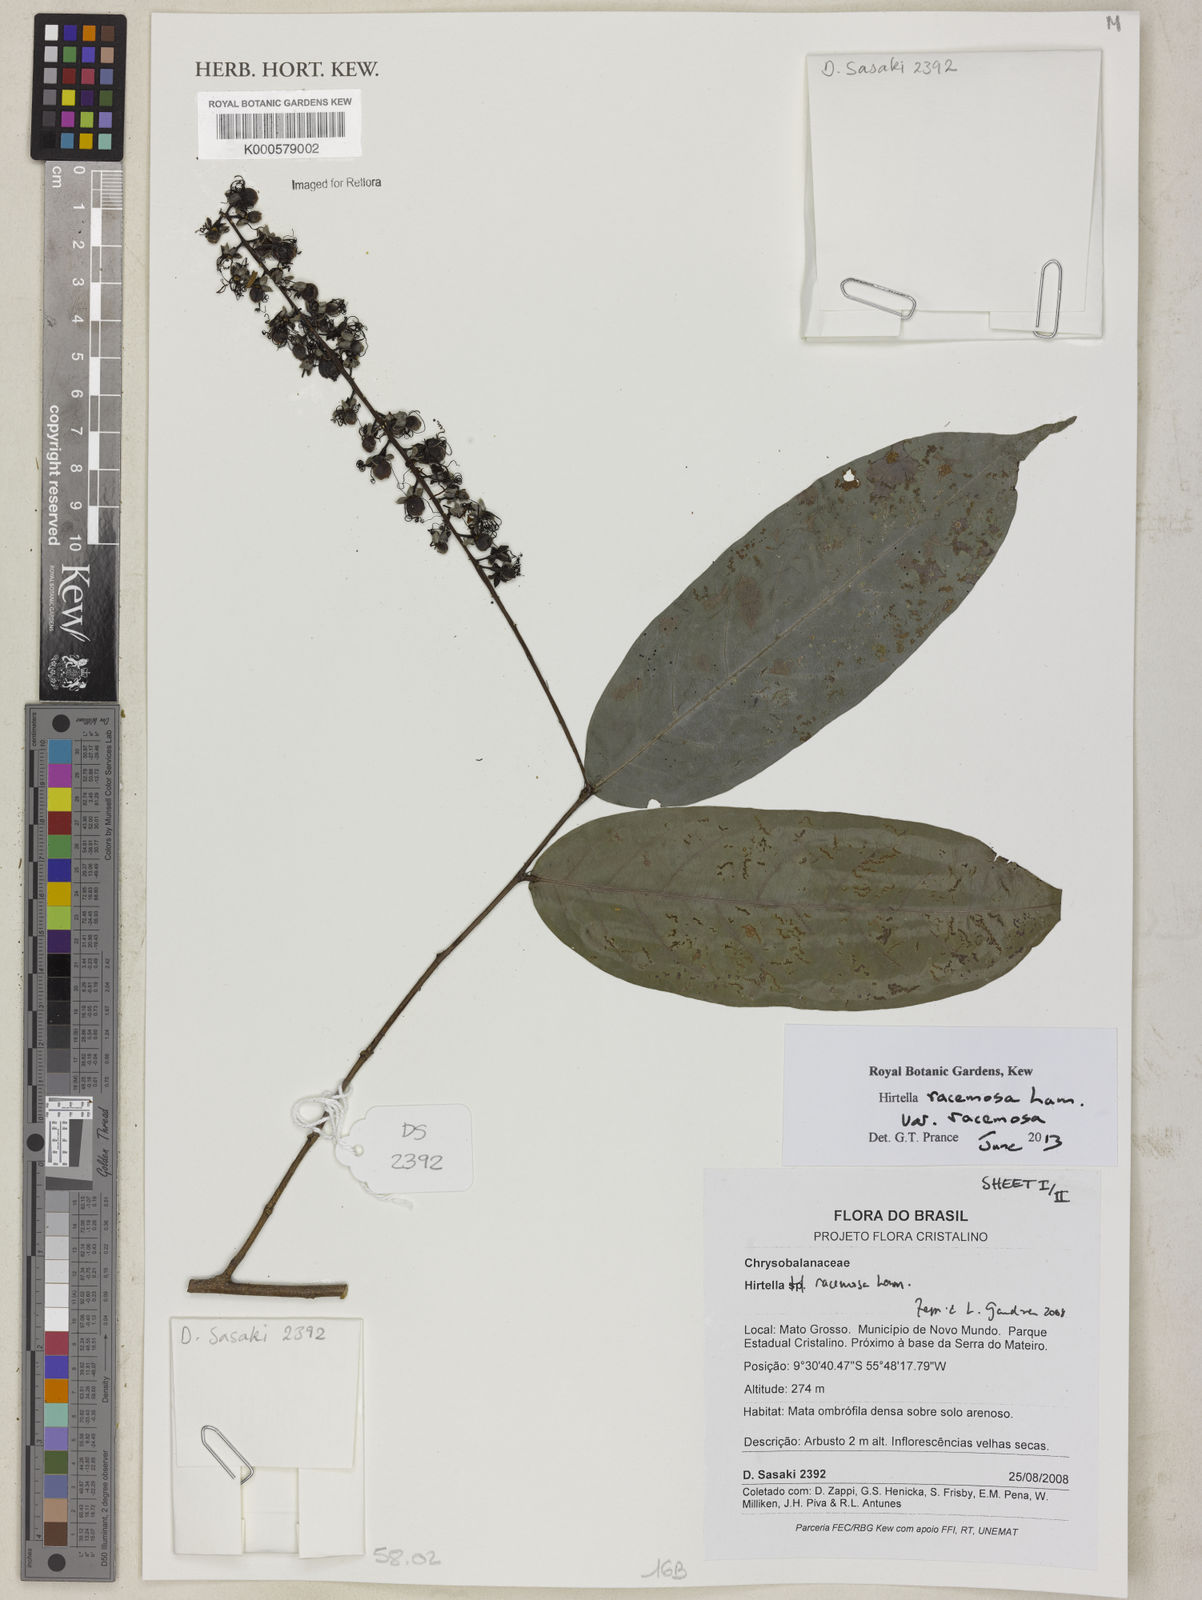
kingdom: Plantae
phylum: Tracheophyta
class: Magnoliopsida
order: Malpighiales
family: Chrysobalanaceae
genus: Hirtella
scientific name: Hirtella racemosa
